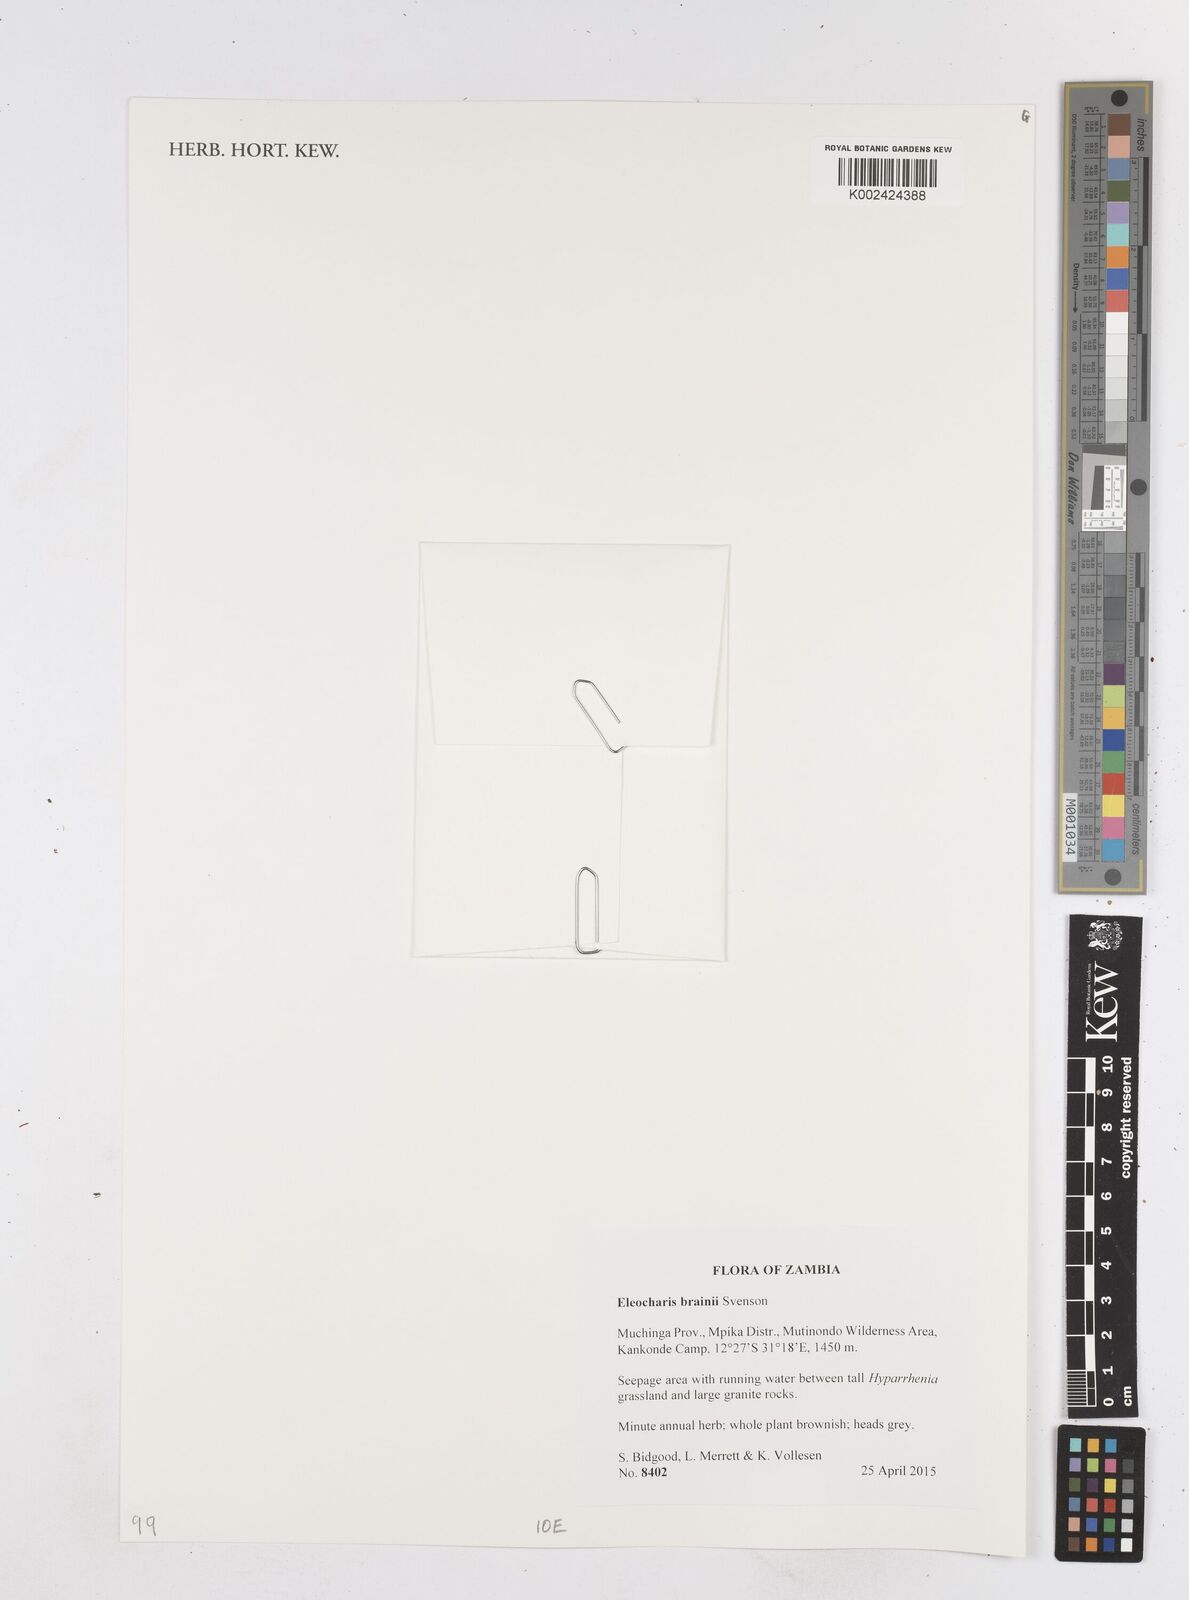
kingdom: Plantae
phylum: Tracheophyta
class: Liliopsida
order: Poales
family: Cyperaceae
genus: Eleocharis
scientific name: Eleocharis brainii
